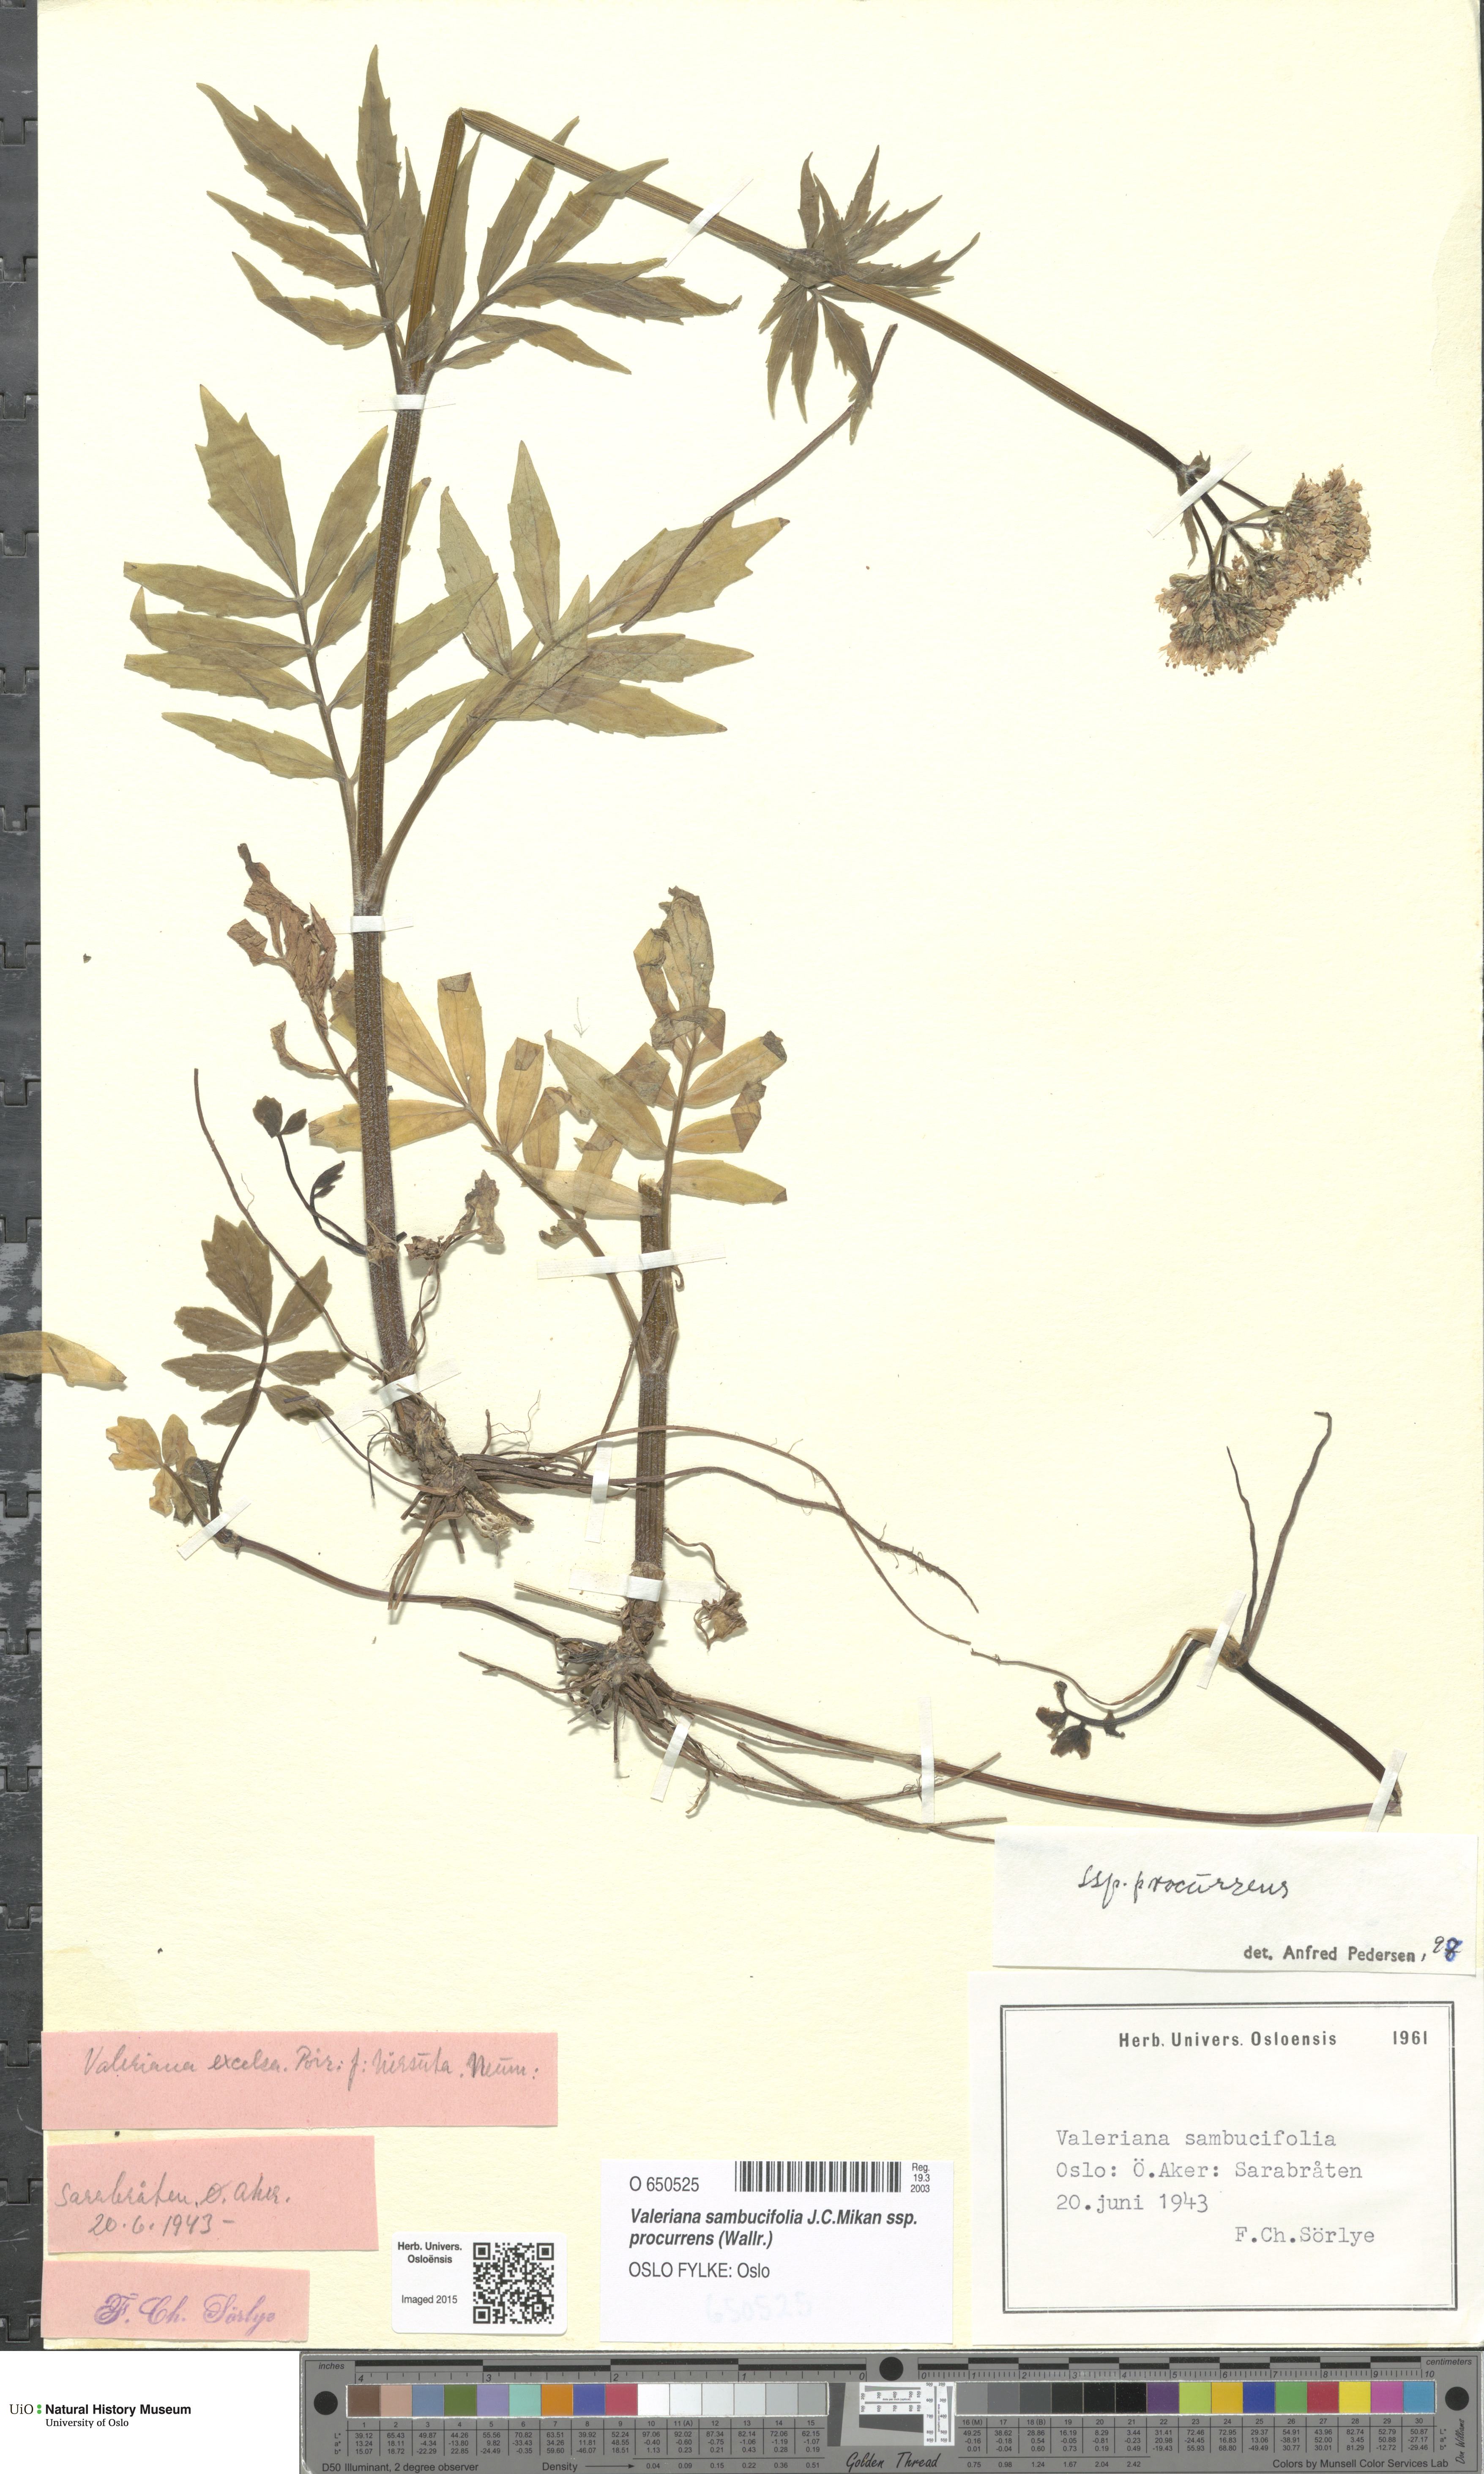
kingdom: Plantae
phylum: Tracheophyta
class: Magnoliopsida
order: Dipsacales
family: Caprifoliaceae
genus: Valeriana
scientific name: Valeriana excelsa
